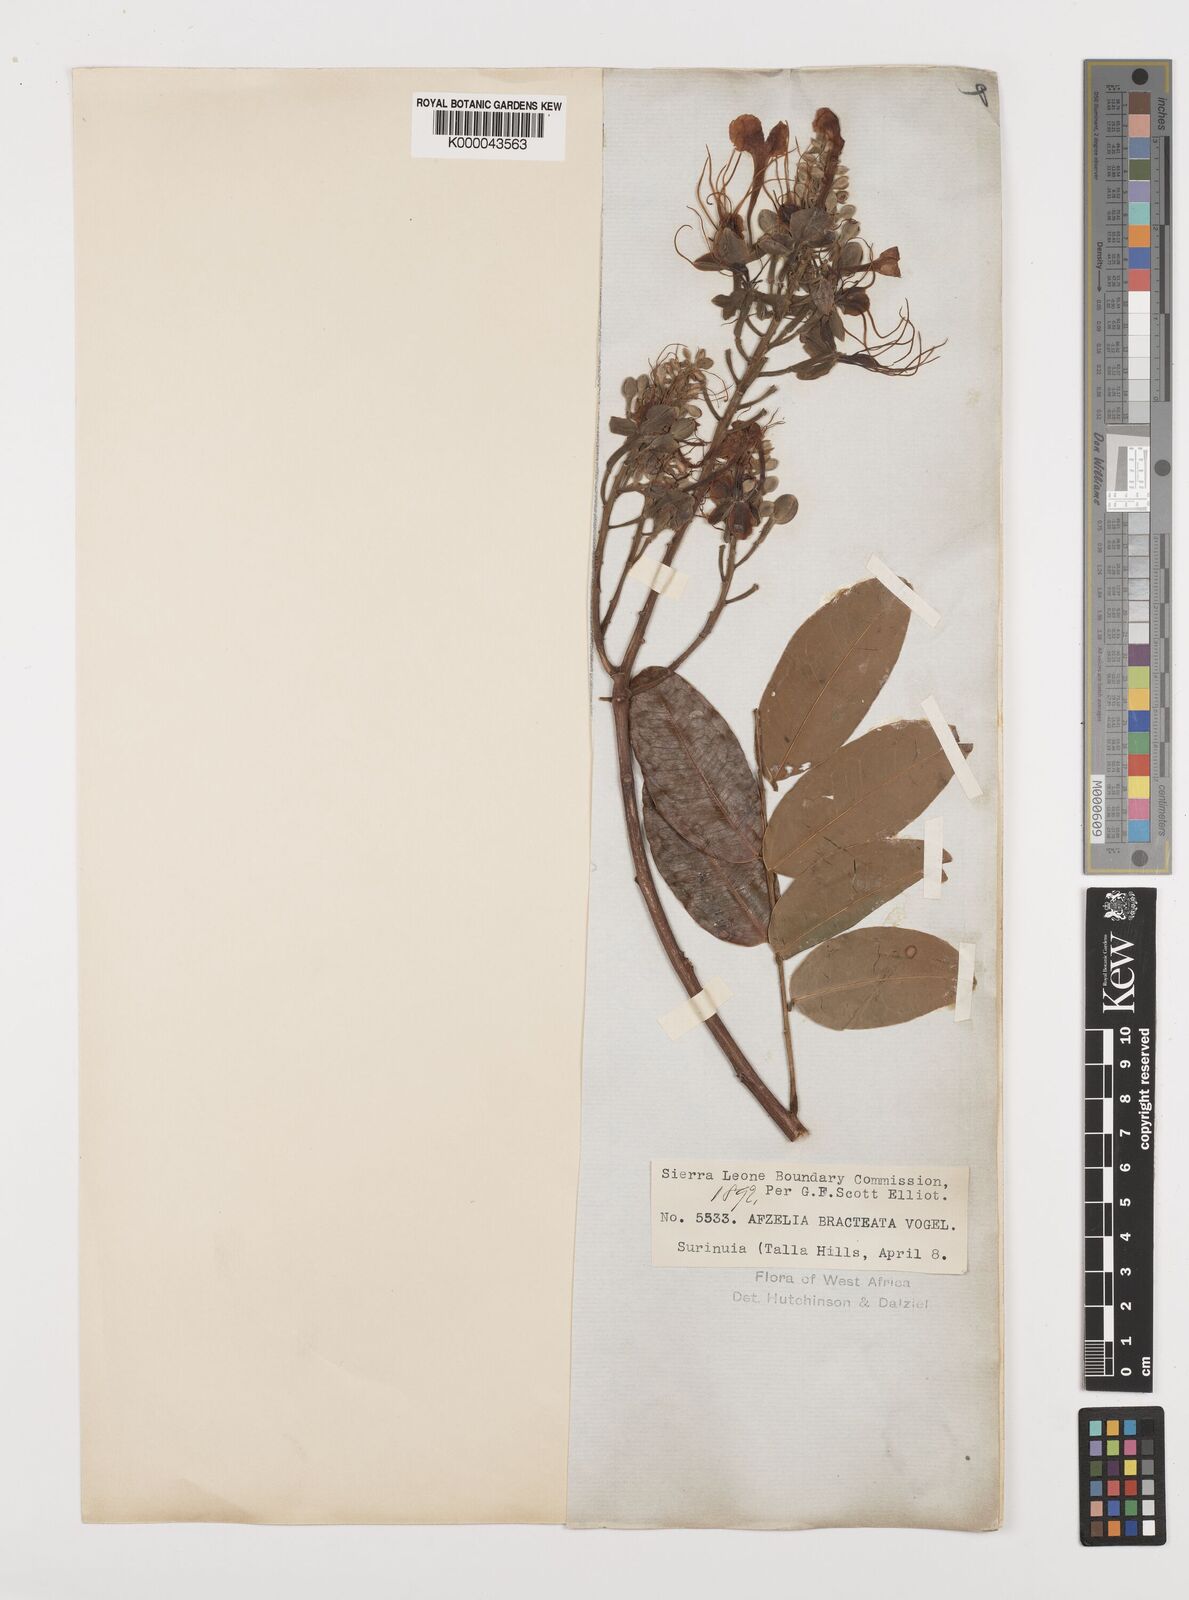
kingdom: Plantae
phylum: Tracheophyta
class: Magnoliopsida
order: Fabales
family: Fabaceae
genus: Afzelia
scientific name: Afzelia
